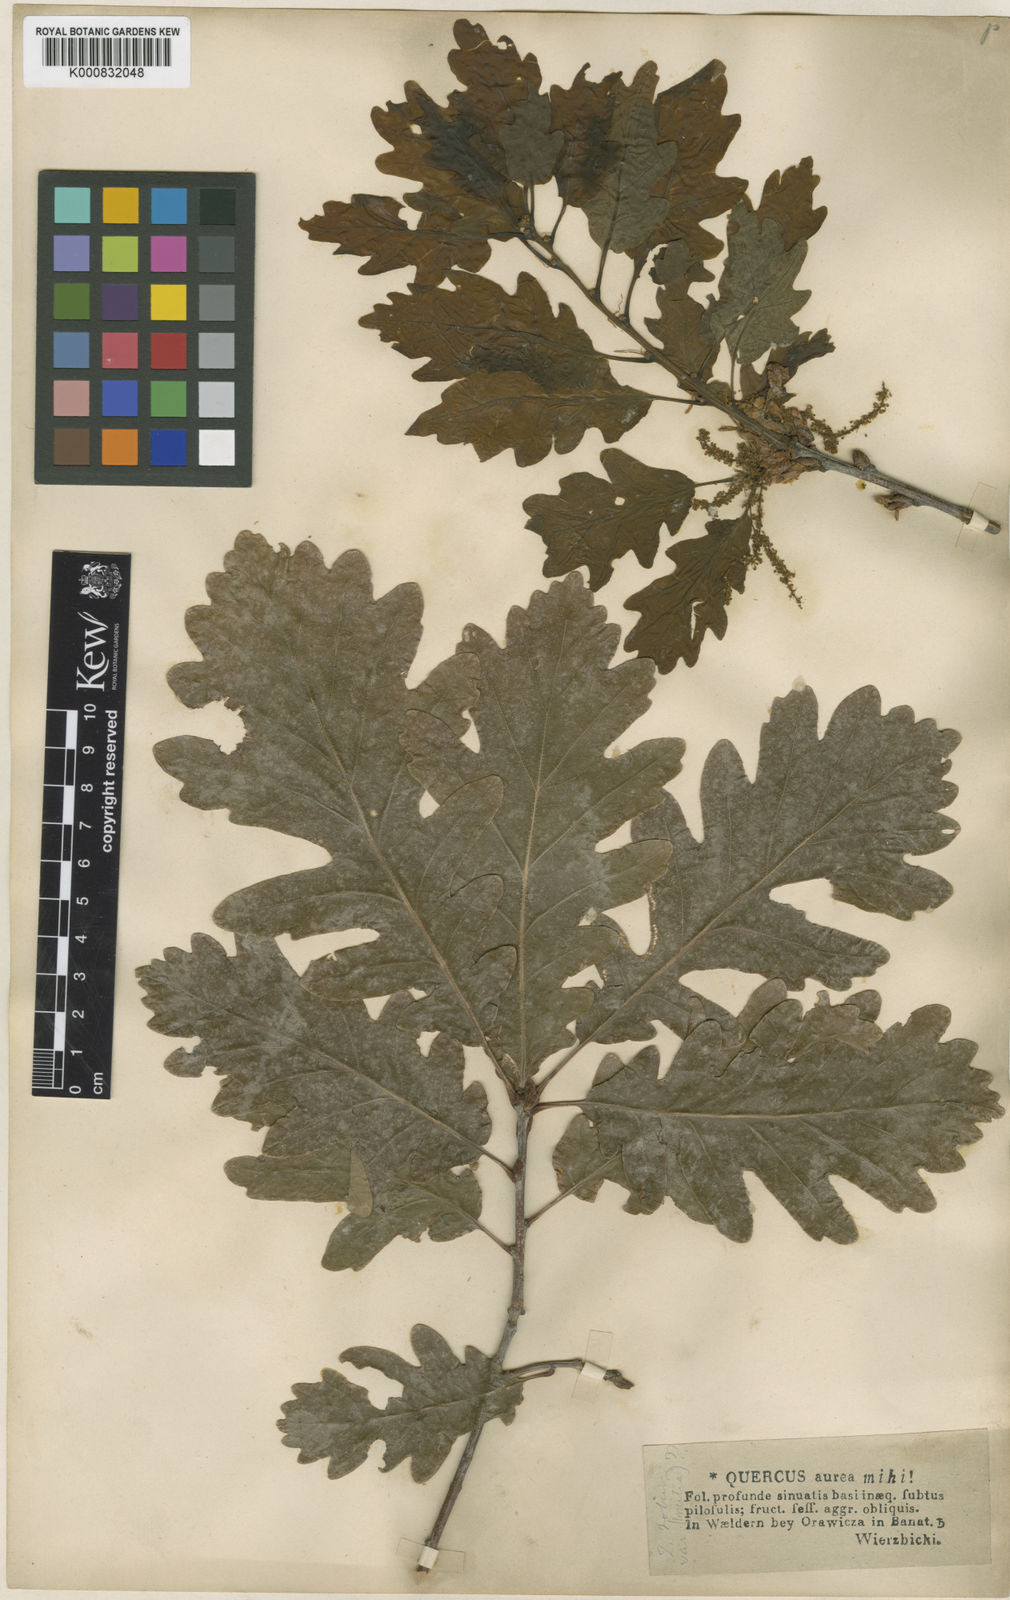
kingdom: Plantae
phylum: Tracheophyta
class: Magnoliopsida
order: Fagales
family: Fagaceae
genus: Quercus
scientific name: Quercus petraea
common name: Sessile oak
